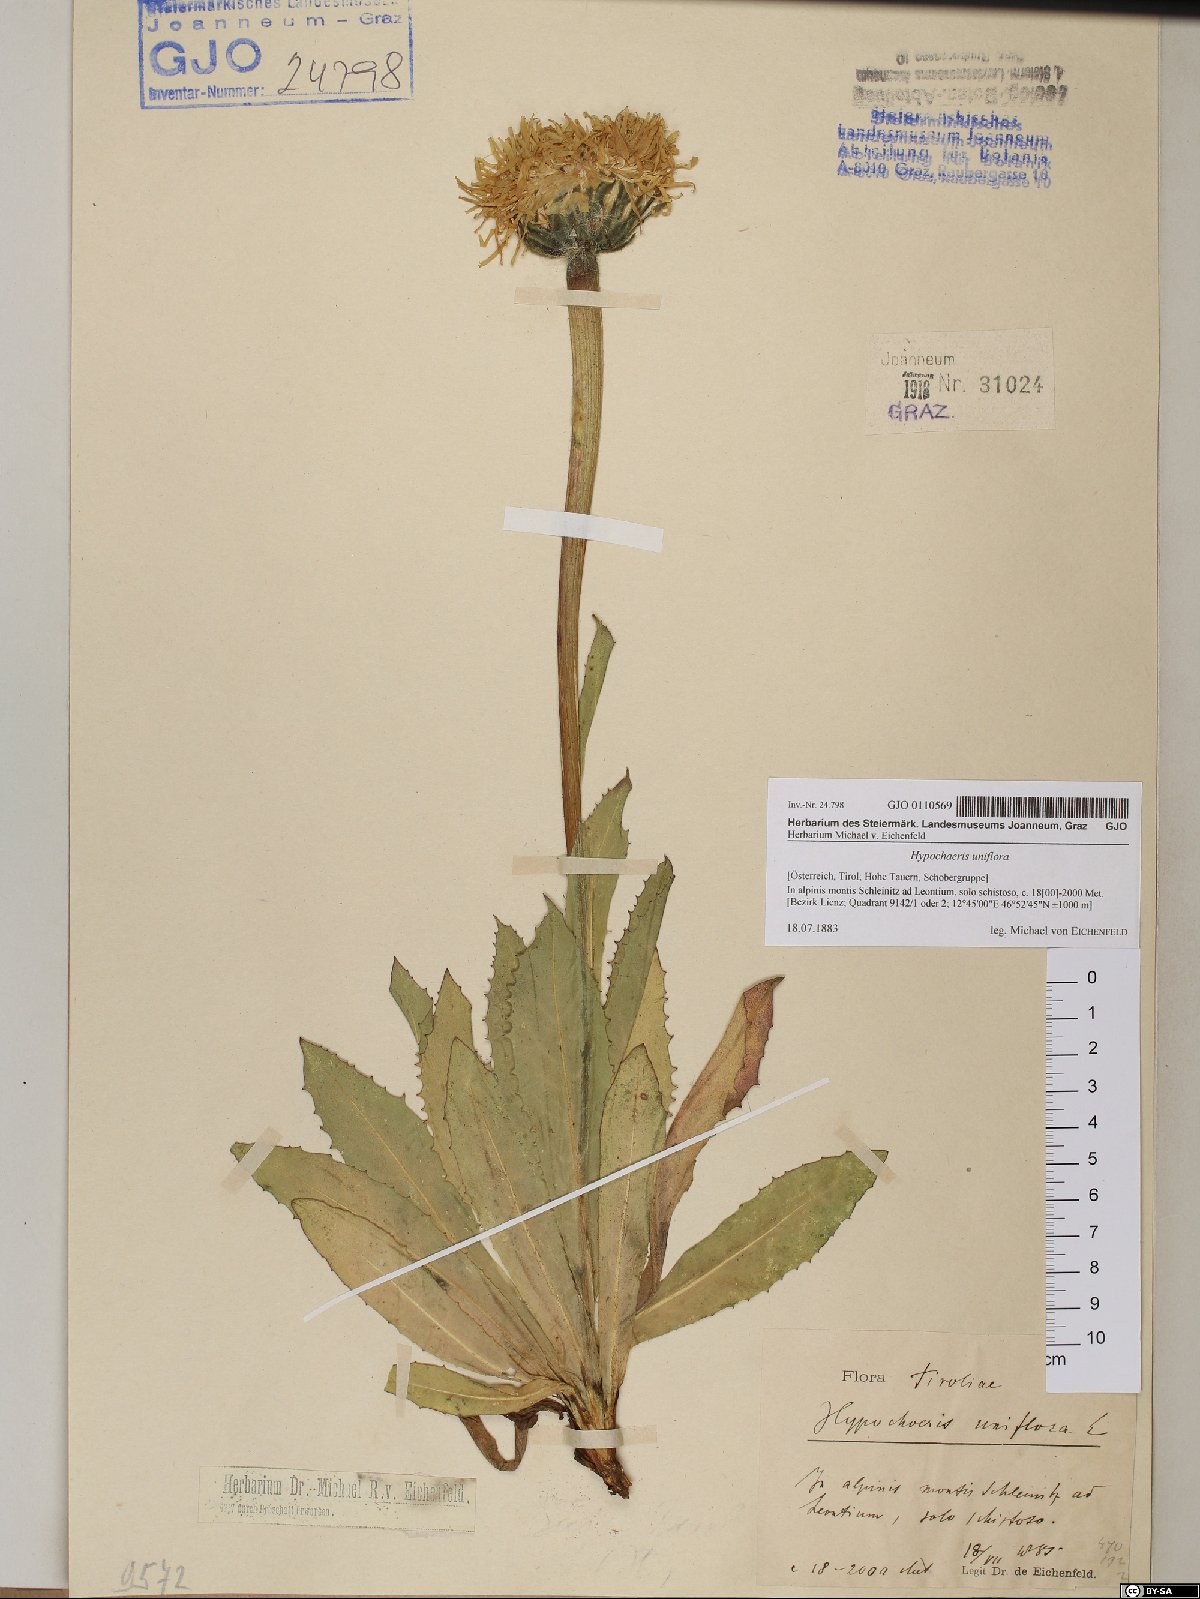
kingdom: Plantae
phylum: Tracheophyta
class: Magnoliopsida
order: Asterales
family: Asteraceae
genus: Trommsdorffia
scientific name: Trommsdorffia uniflora
